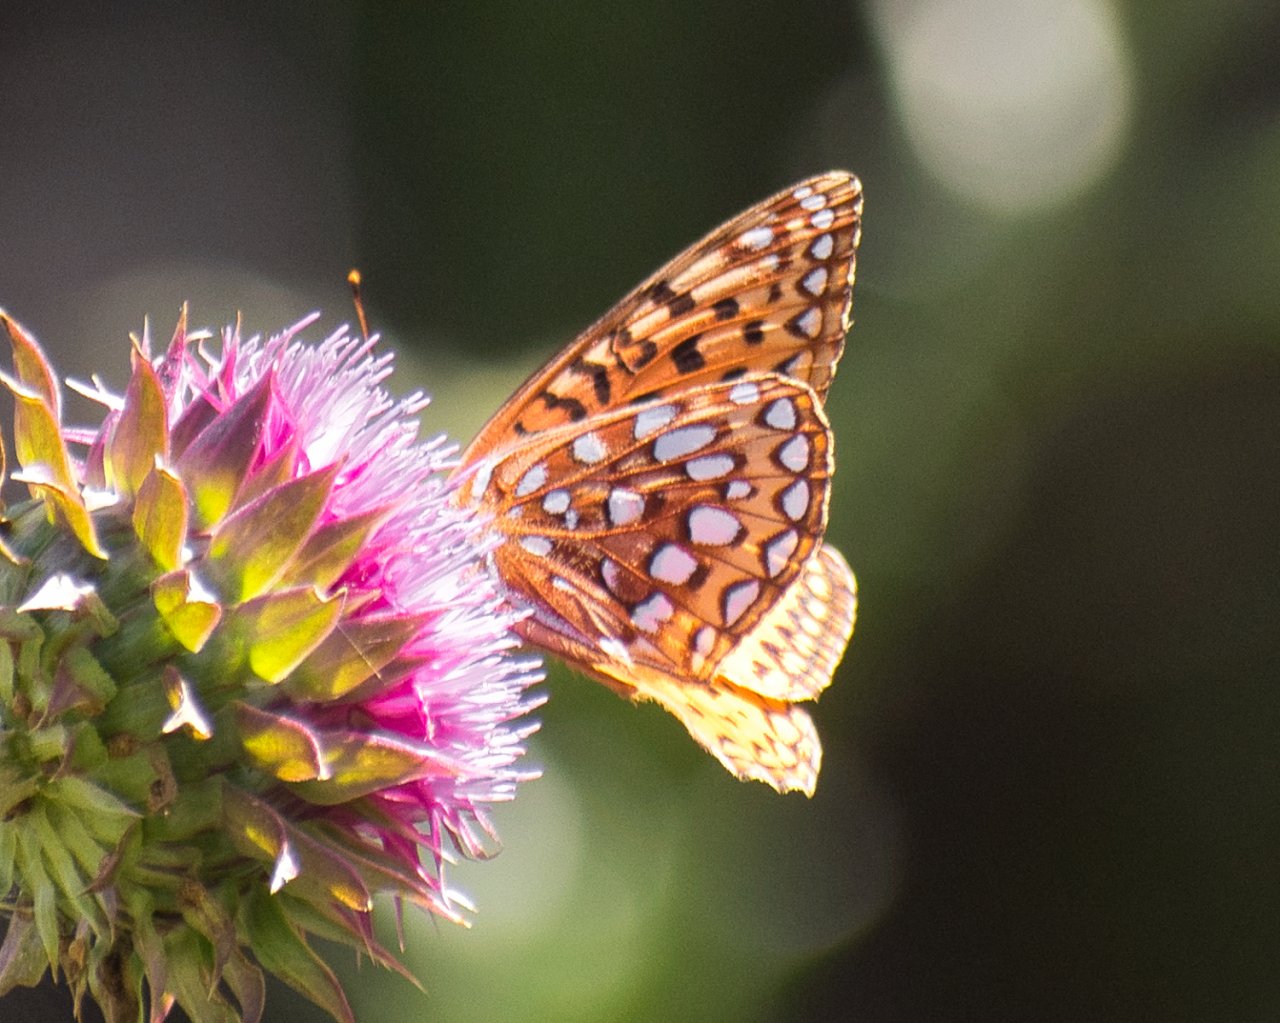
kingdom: Animalia
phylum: Arthropoda
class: Insecta
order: Lepidoptera
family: Nymphalidae
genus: Speyeria
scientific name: Speyeria zerene
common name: Zerene Fritillary
